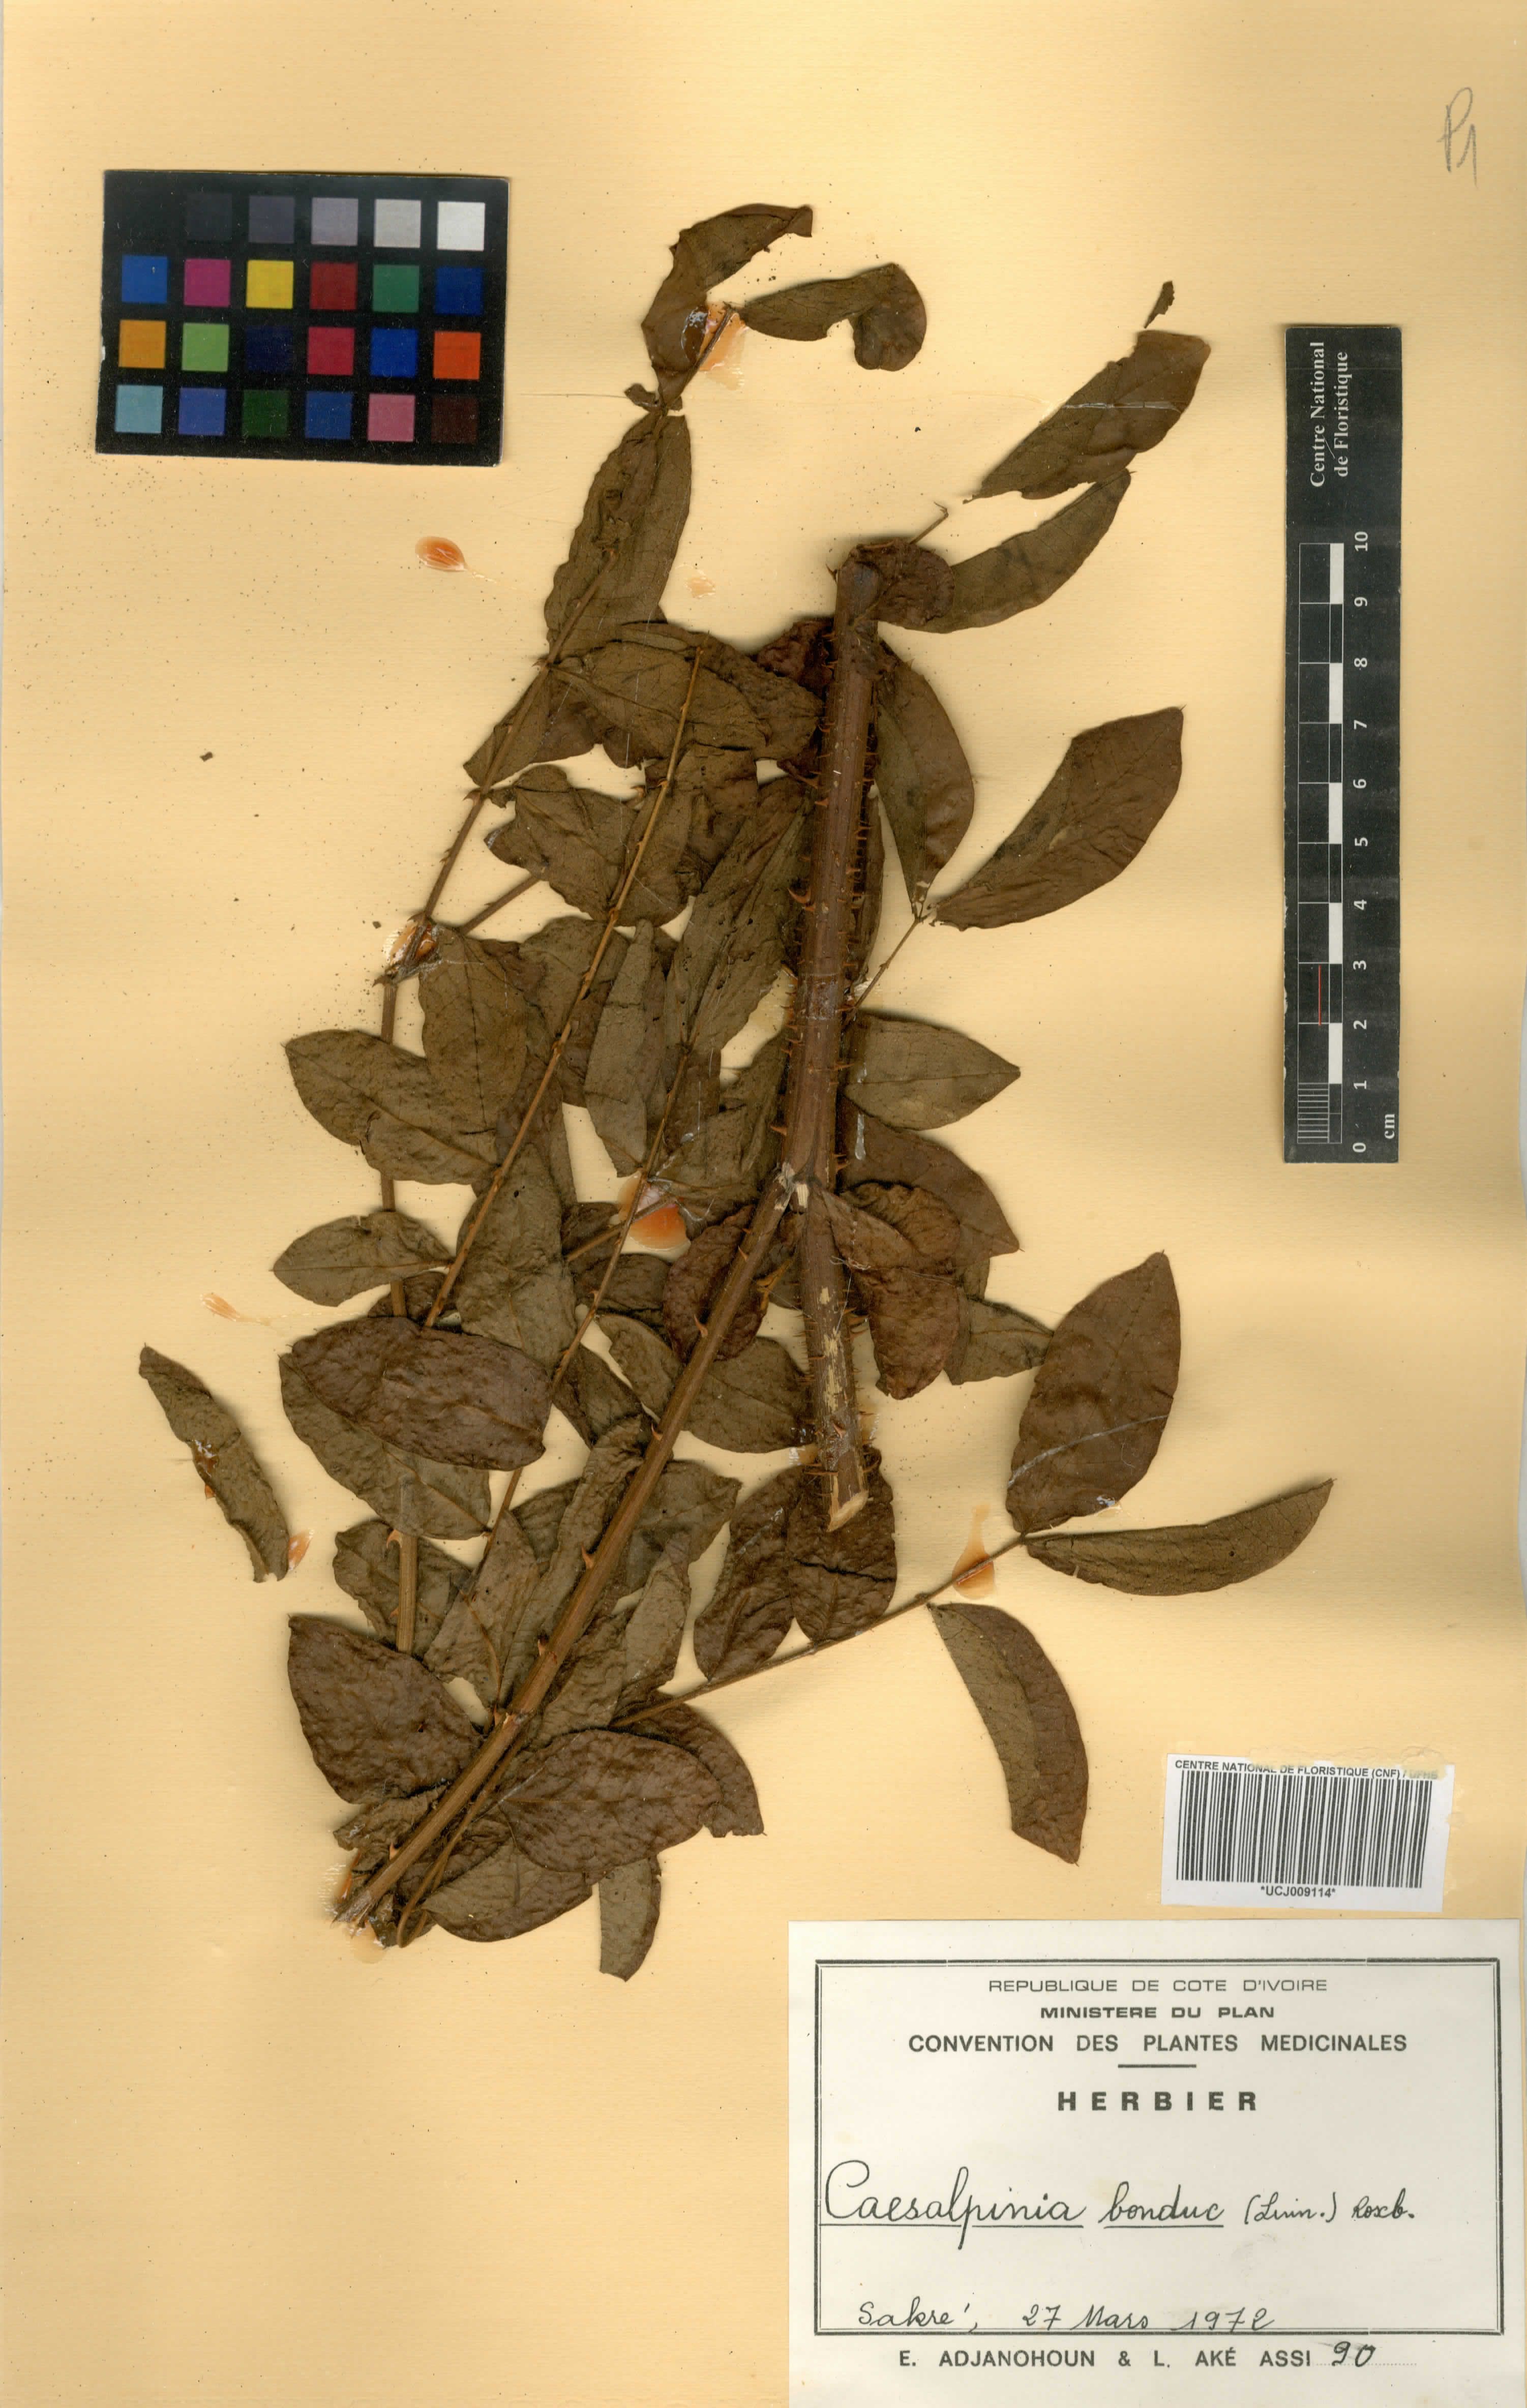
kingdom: Plantae
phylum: Tracheophyta
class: Magnoliopsida
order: Fabales
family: Fabaceae
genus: Guilandina
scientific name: Guilandina bonduc
